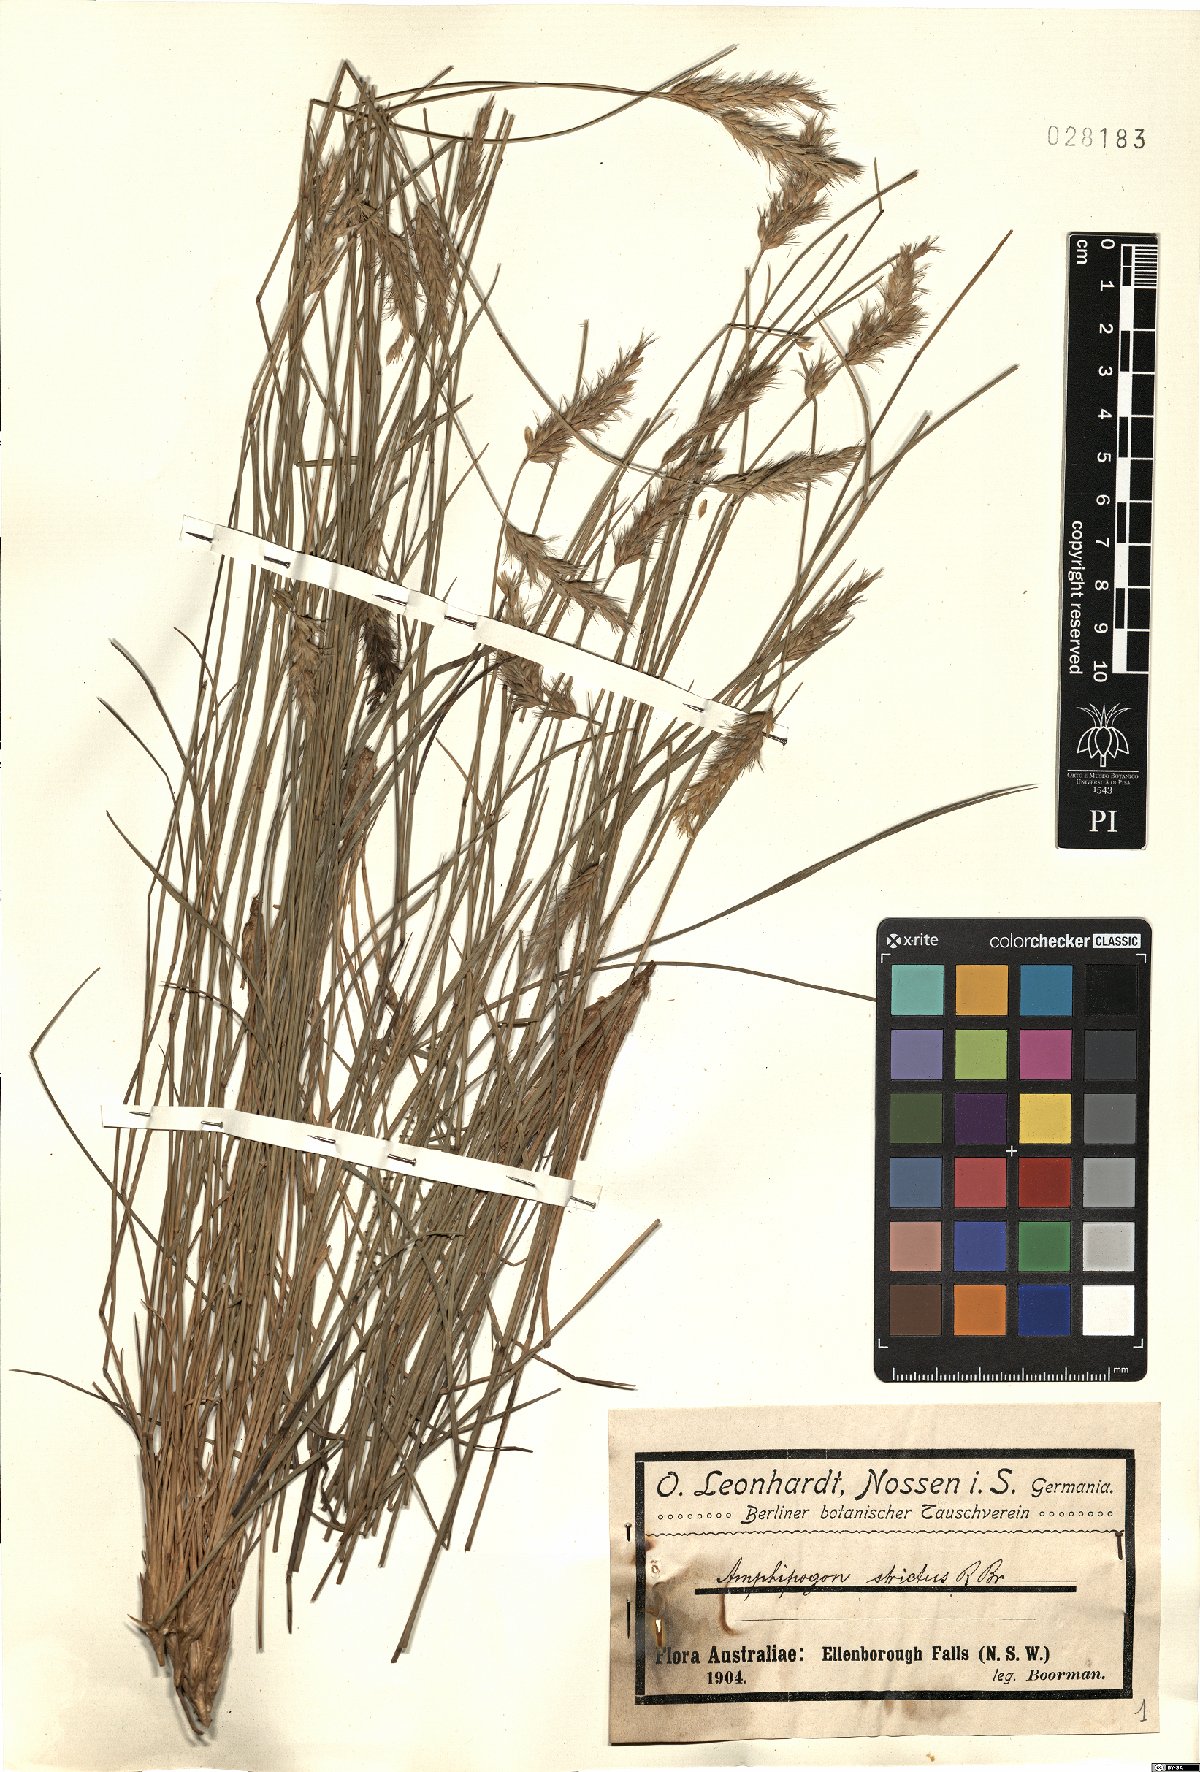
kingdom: Plantae
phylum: Tracheophyta
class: Liliopsida
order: Poales
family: Poaceae
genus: Amphipogon
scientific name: Amphipogon strictus
